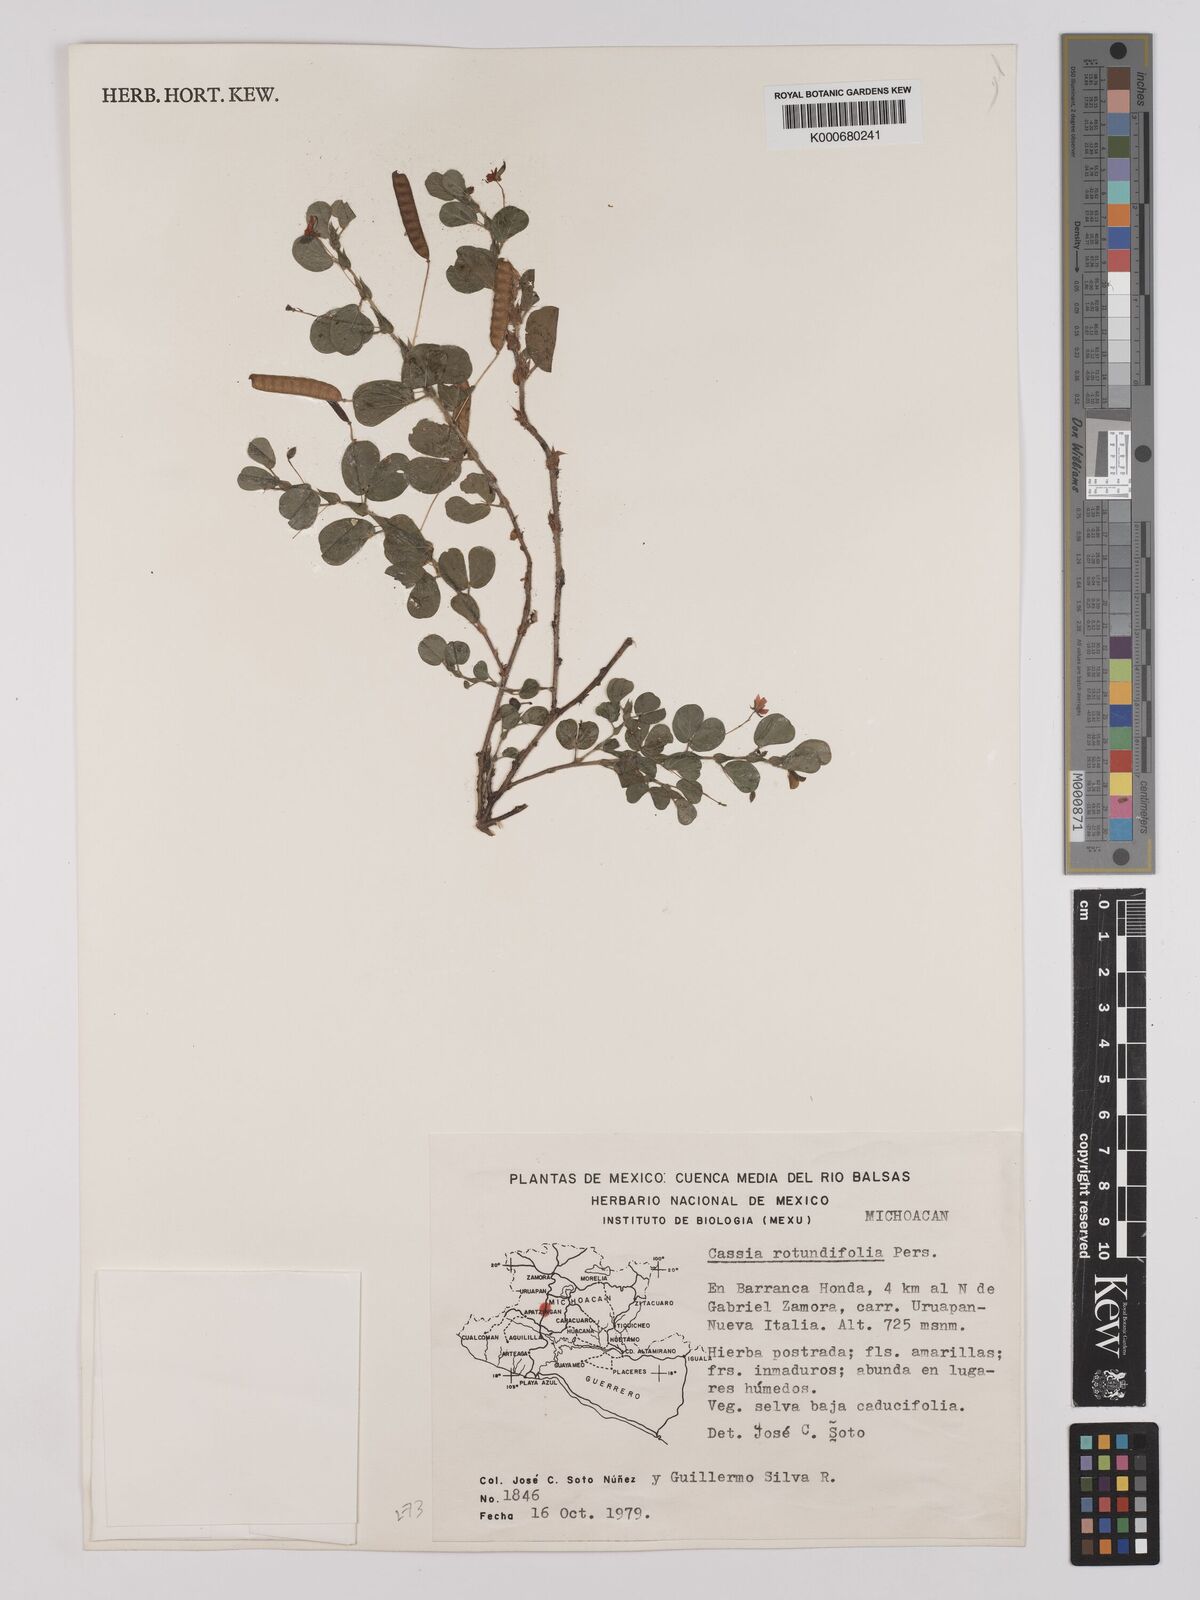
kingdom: Plantae
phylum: Tracheophyta
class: Magnoliopsida
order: Fabales
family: Fabaceae
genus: Chamaecrista
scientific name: Chamaecrista rotundifolia
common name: Round-leaf cassia
